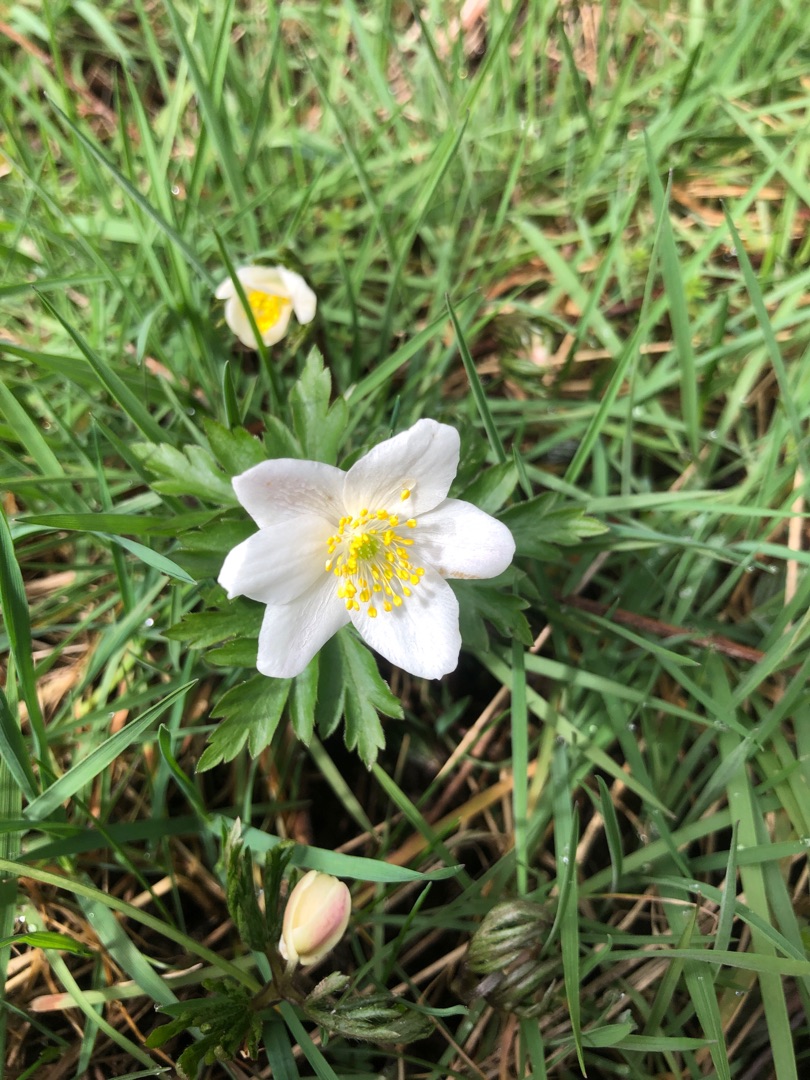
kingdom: Plantae
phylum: Tracheophyta
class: Magnoliopsida
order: Ranunculales
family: Ranunculaceae
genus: Anemone
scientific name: Anemone nemorosa
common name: Hvid anemone
